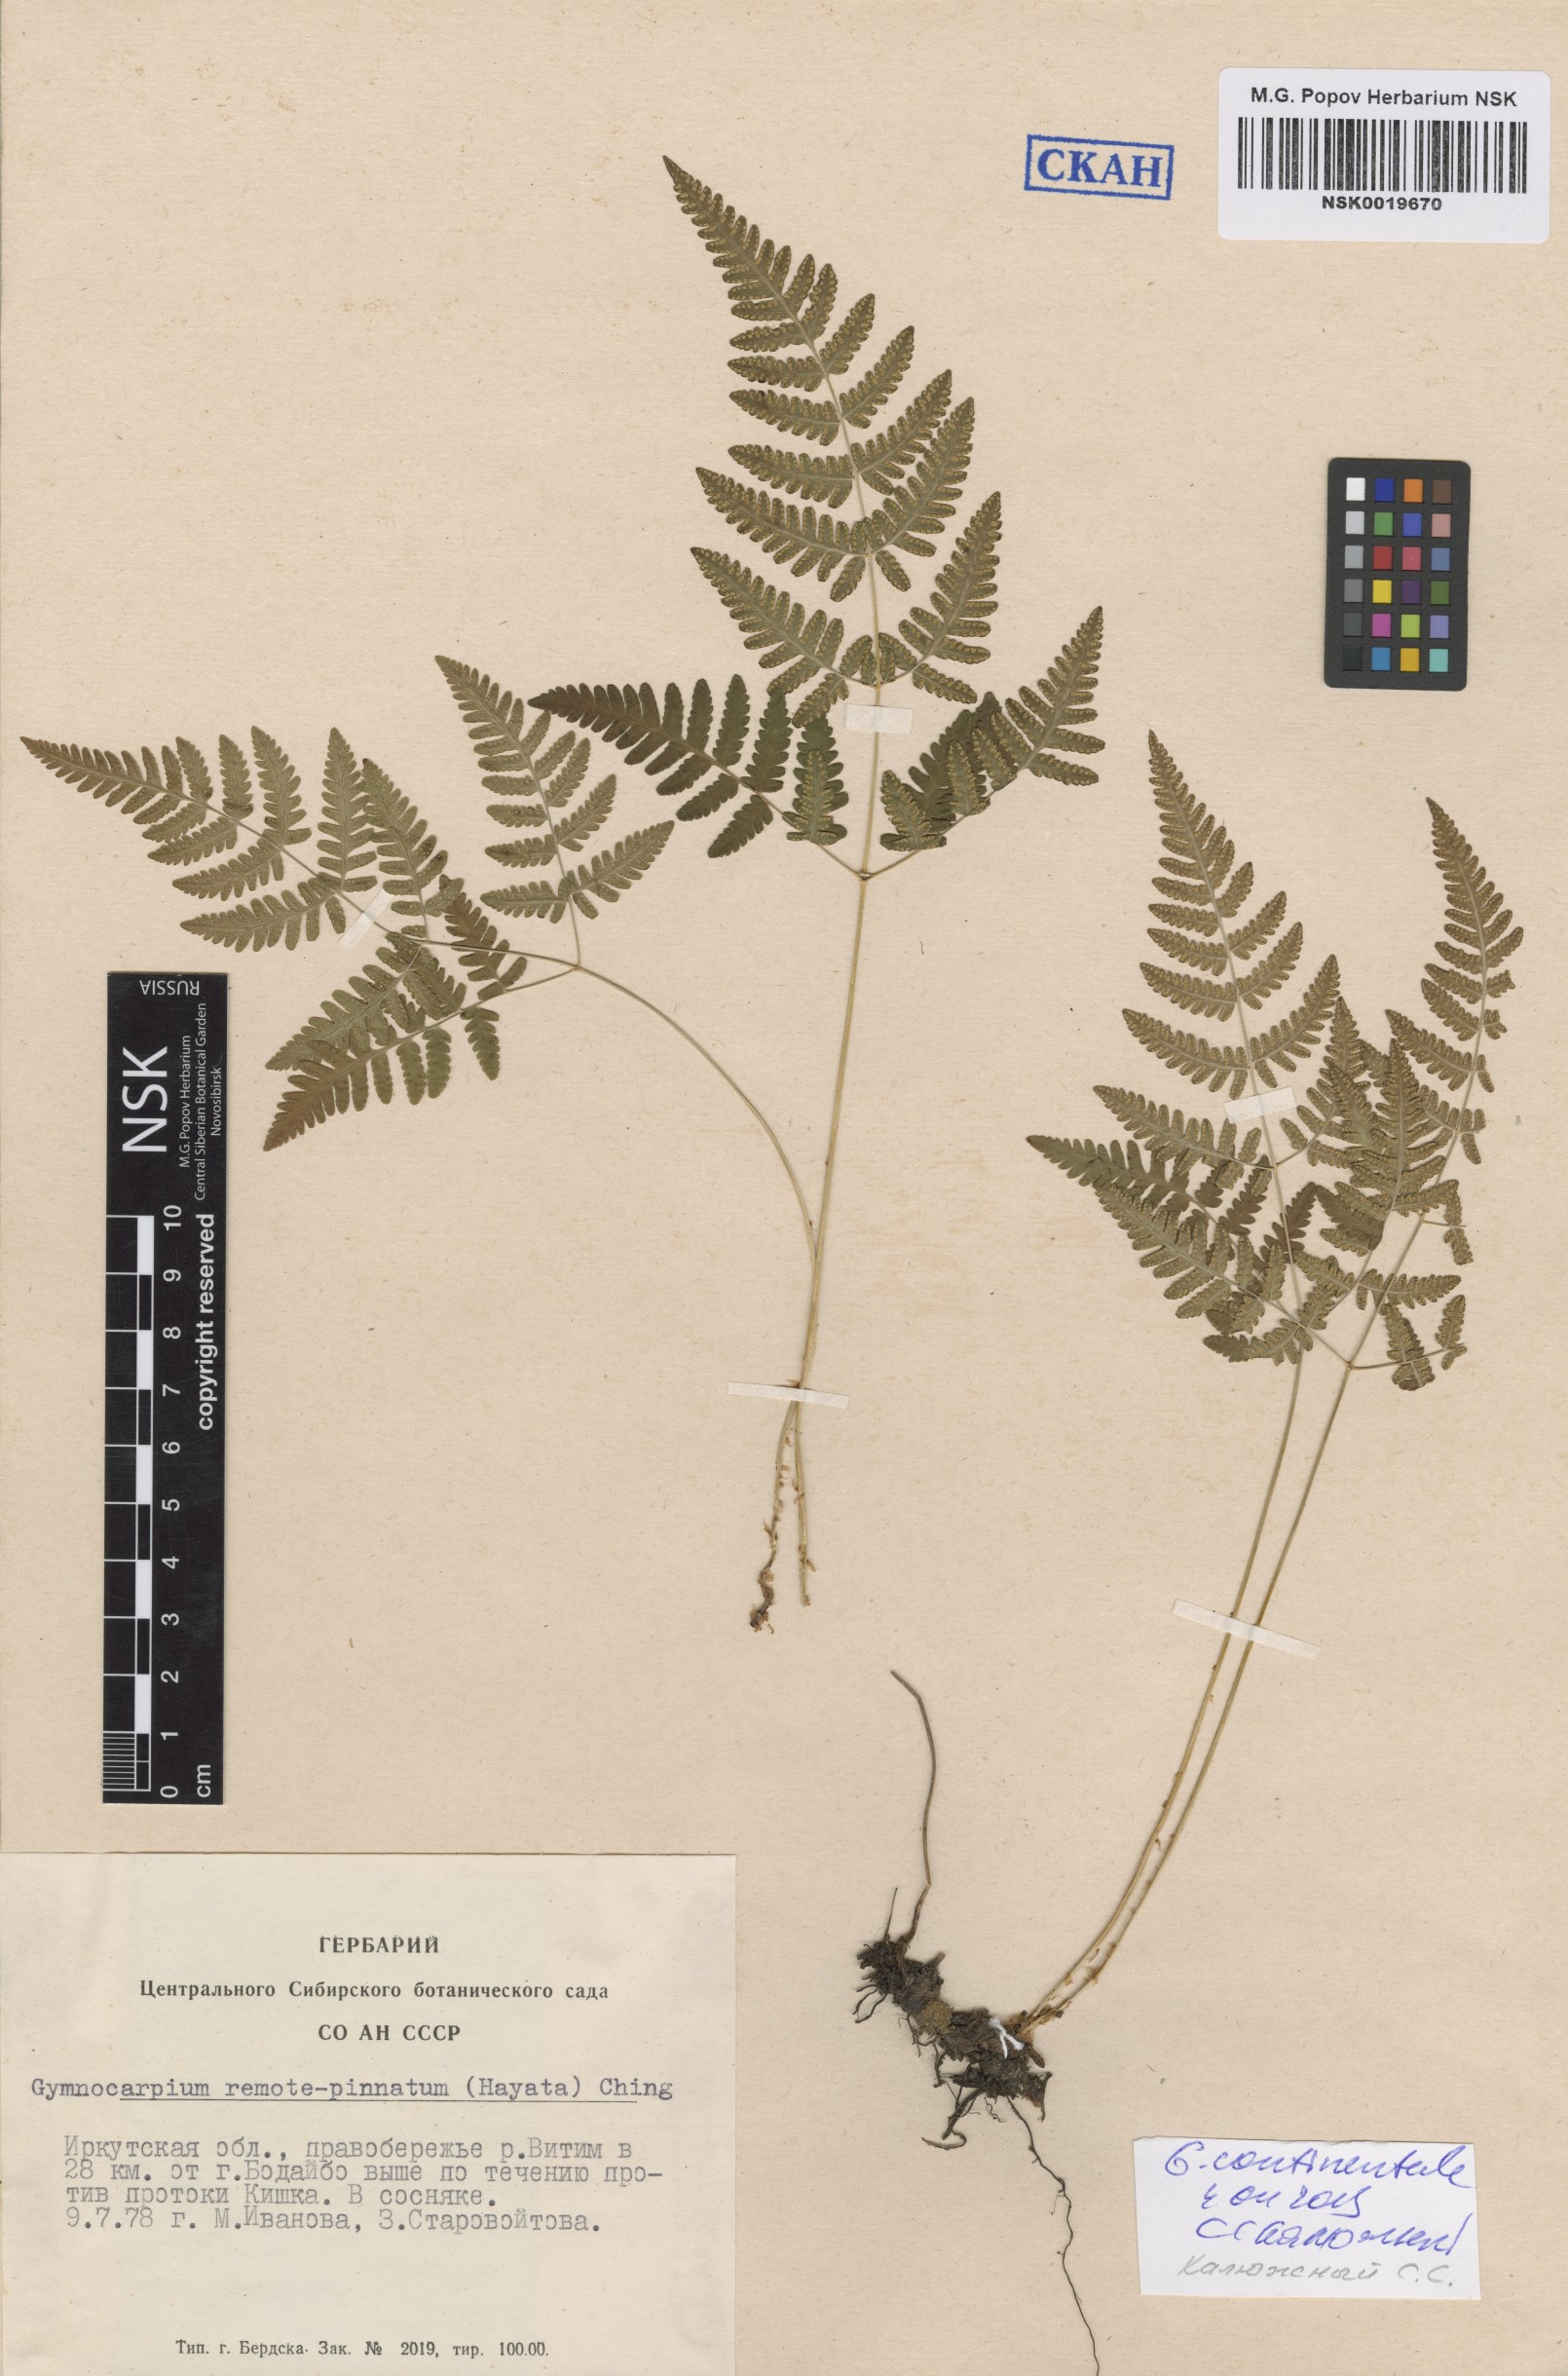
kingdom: Plantae
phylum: Tracheophyta
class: Polypodiopsida
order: Polypodiales
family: Cystopteridaceae
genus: Gymnocarpium
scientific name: Gymnocarpium continentale
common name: Asian oak fern
